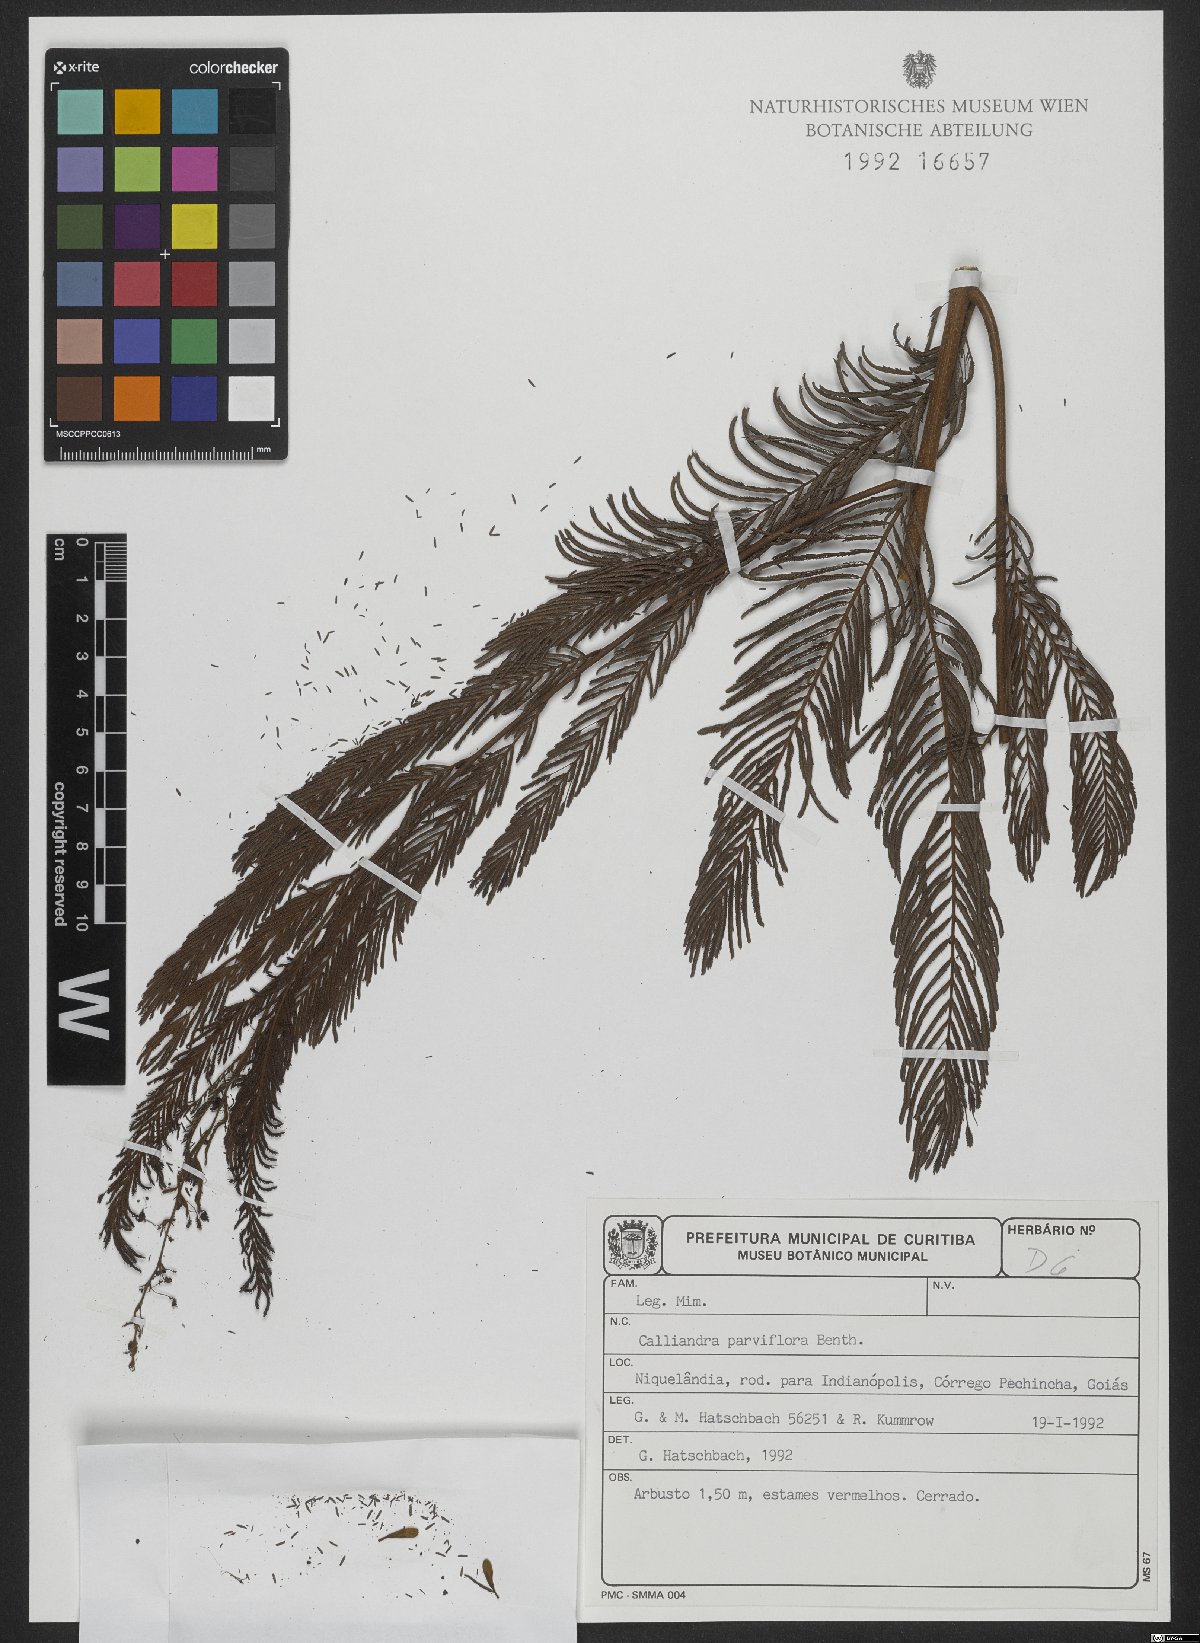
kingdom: Plantae
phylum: Tracheophyta
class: Magnoliopsida
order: Fabales
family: Fabaceae
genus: Calliandra
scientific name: Calliandra parviflora
